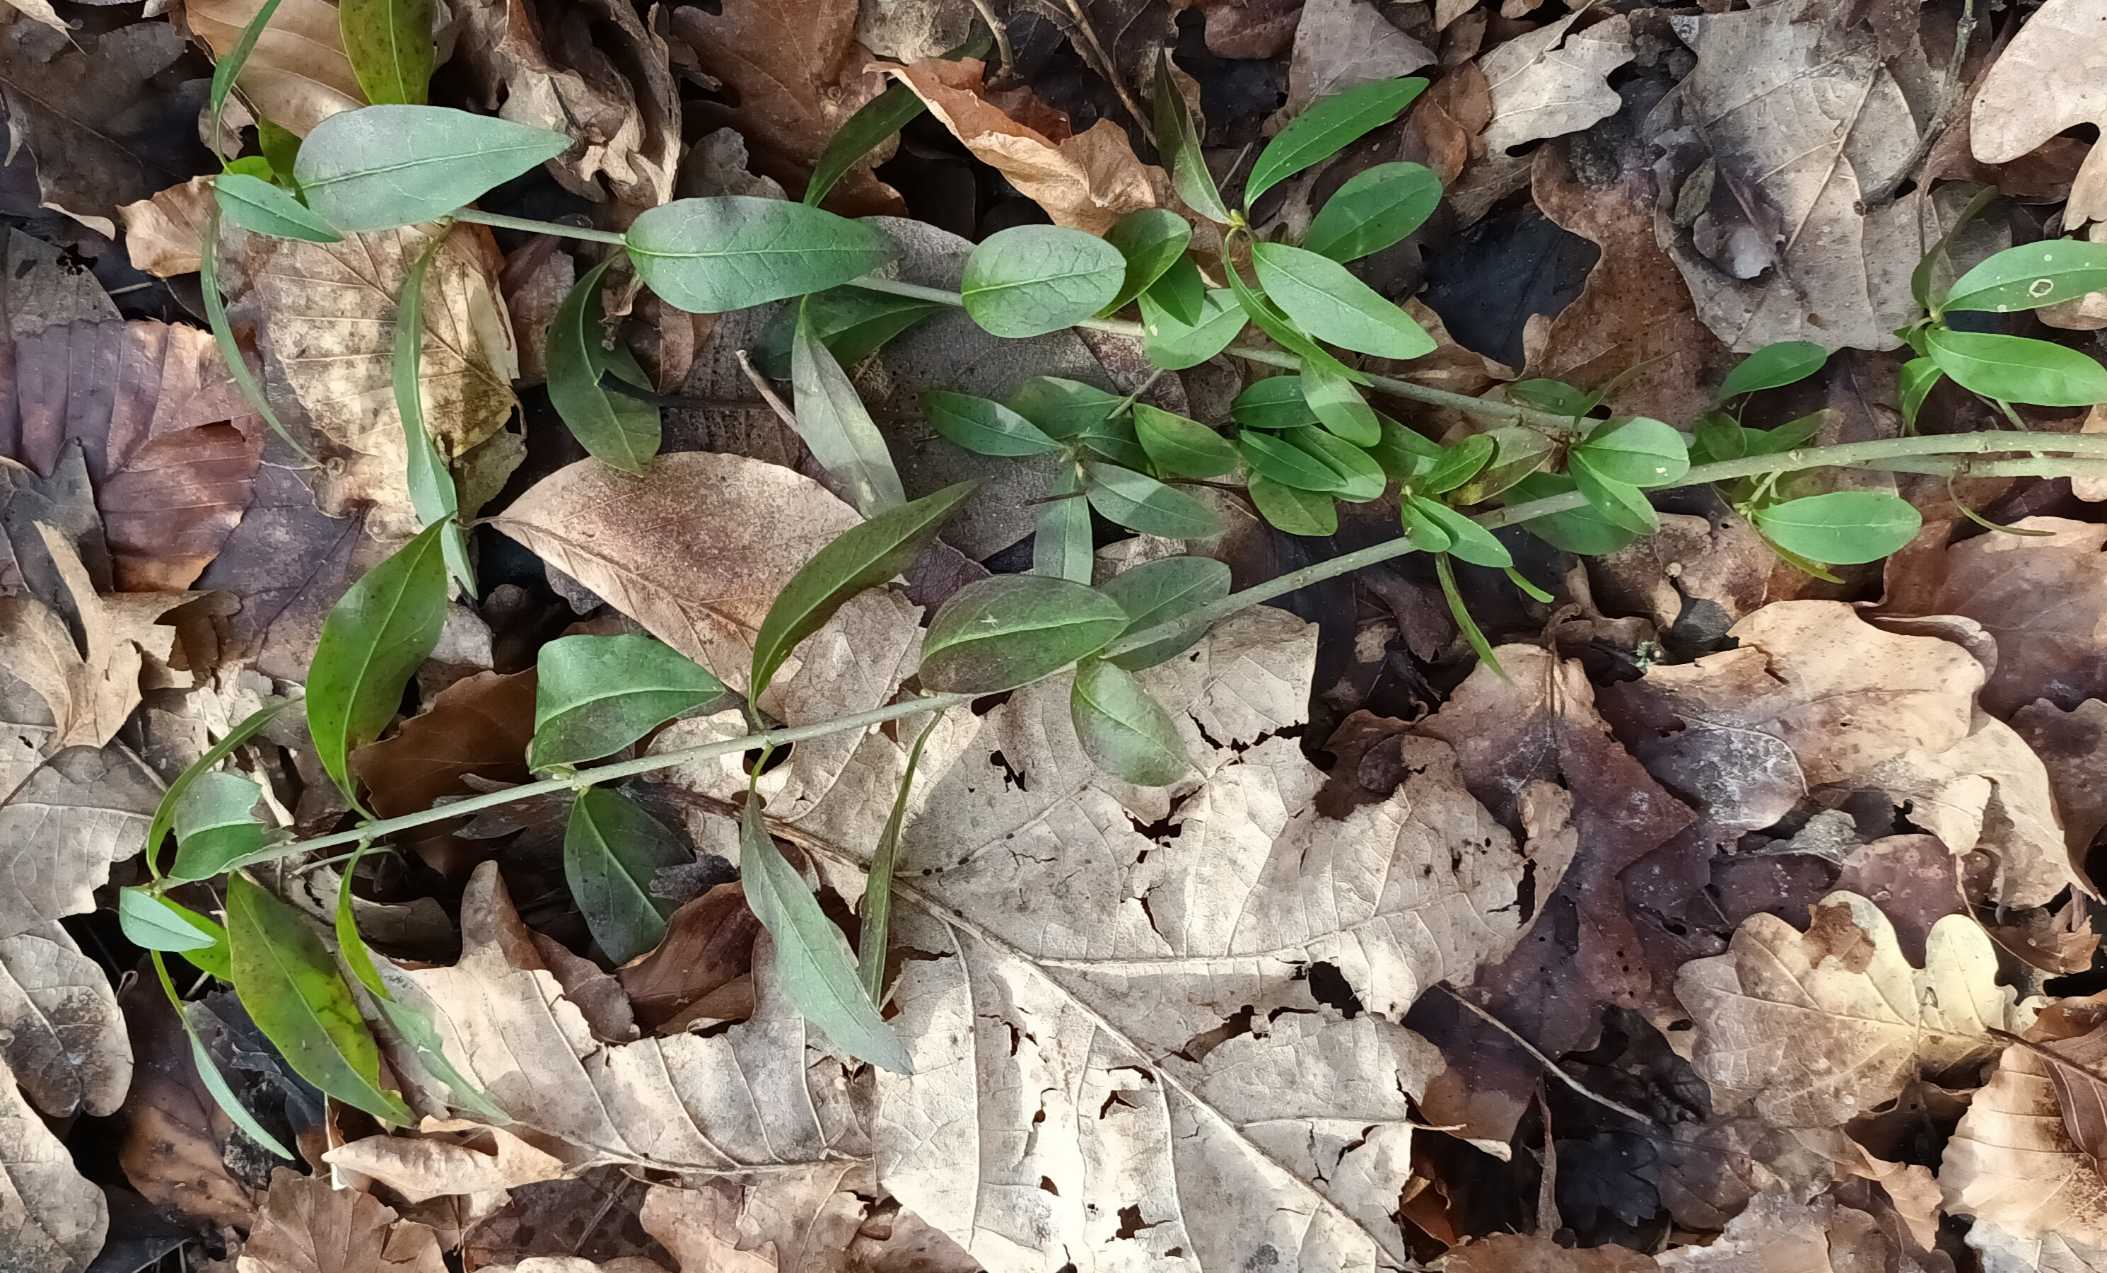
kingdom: Plantae
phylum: Tracheophyta
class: Magnoliopsida
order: Lamiales
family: Oleaceae
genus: Ligustrum
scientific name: Ligustrum vulgare
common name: Liguster
